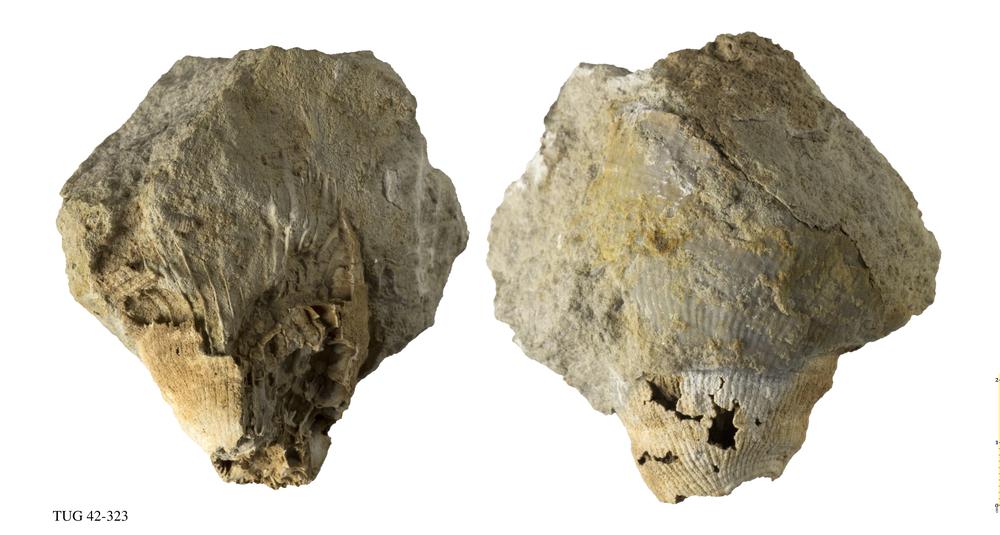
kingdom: Animalia
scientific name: Animalia
